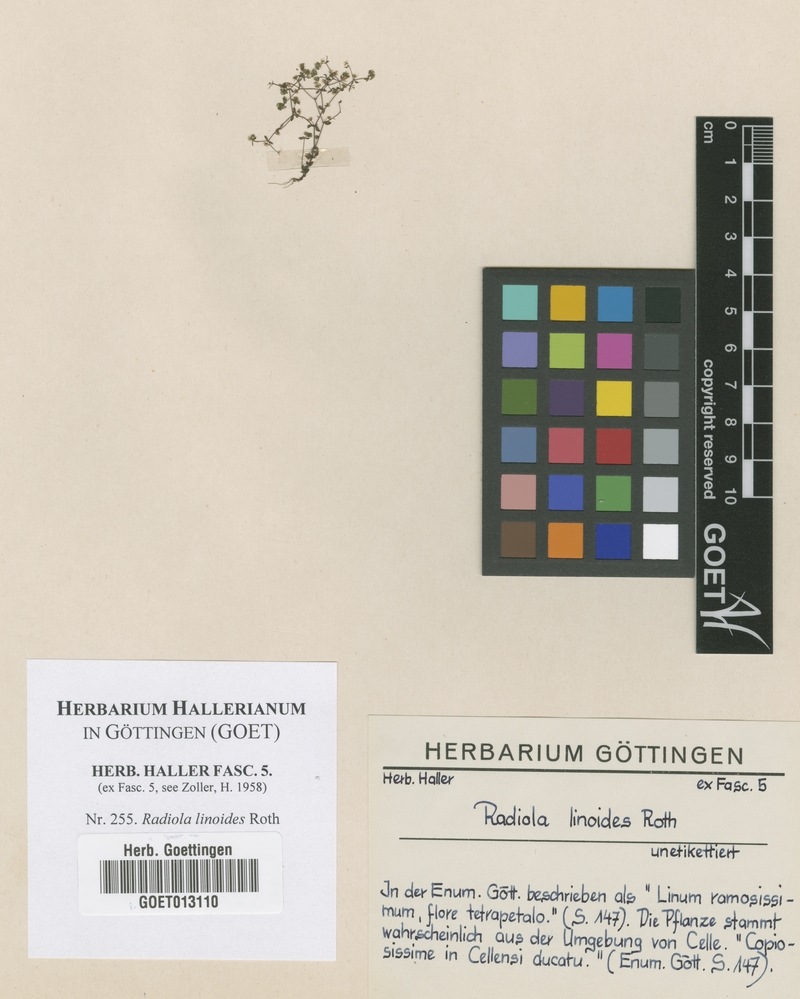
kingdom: Plantae
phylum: Tracheophyta
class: Magnoliopsida
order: Malpighiales
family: Linaceae
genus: Radiola
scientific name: Radiola linoides
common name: Allseed
